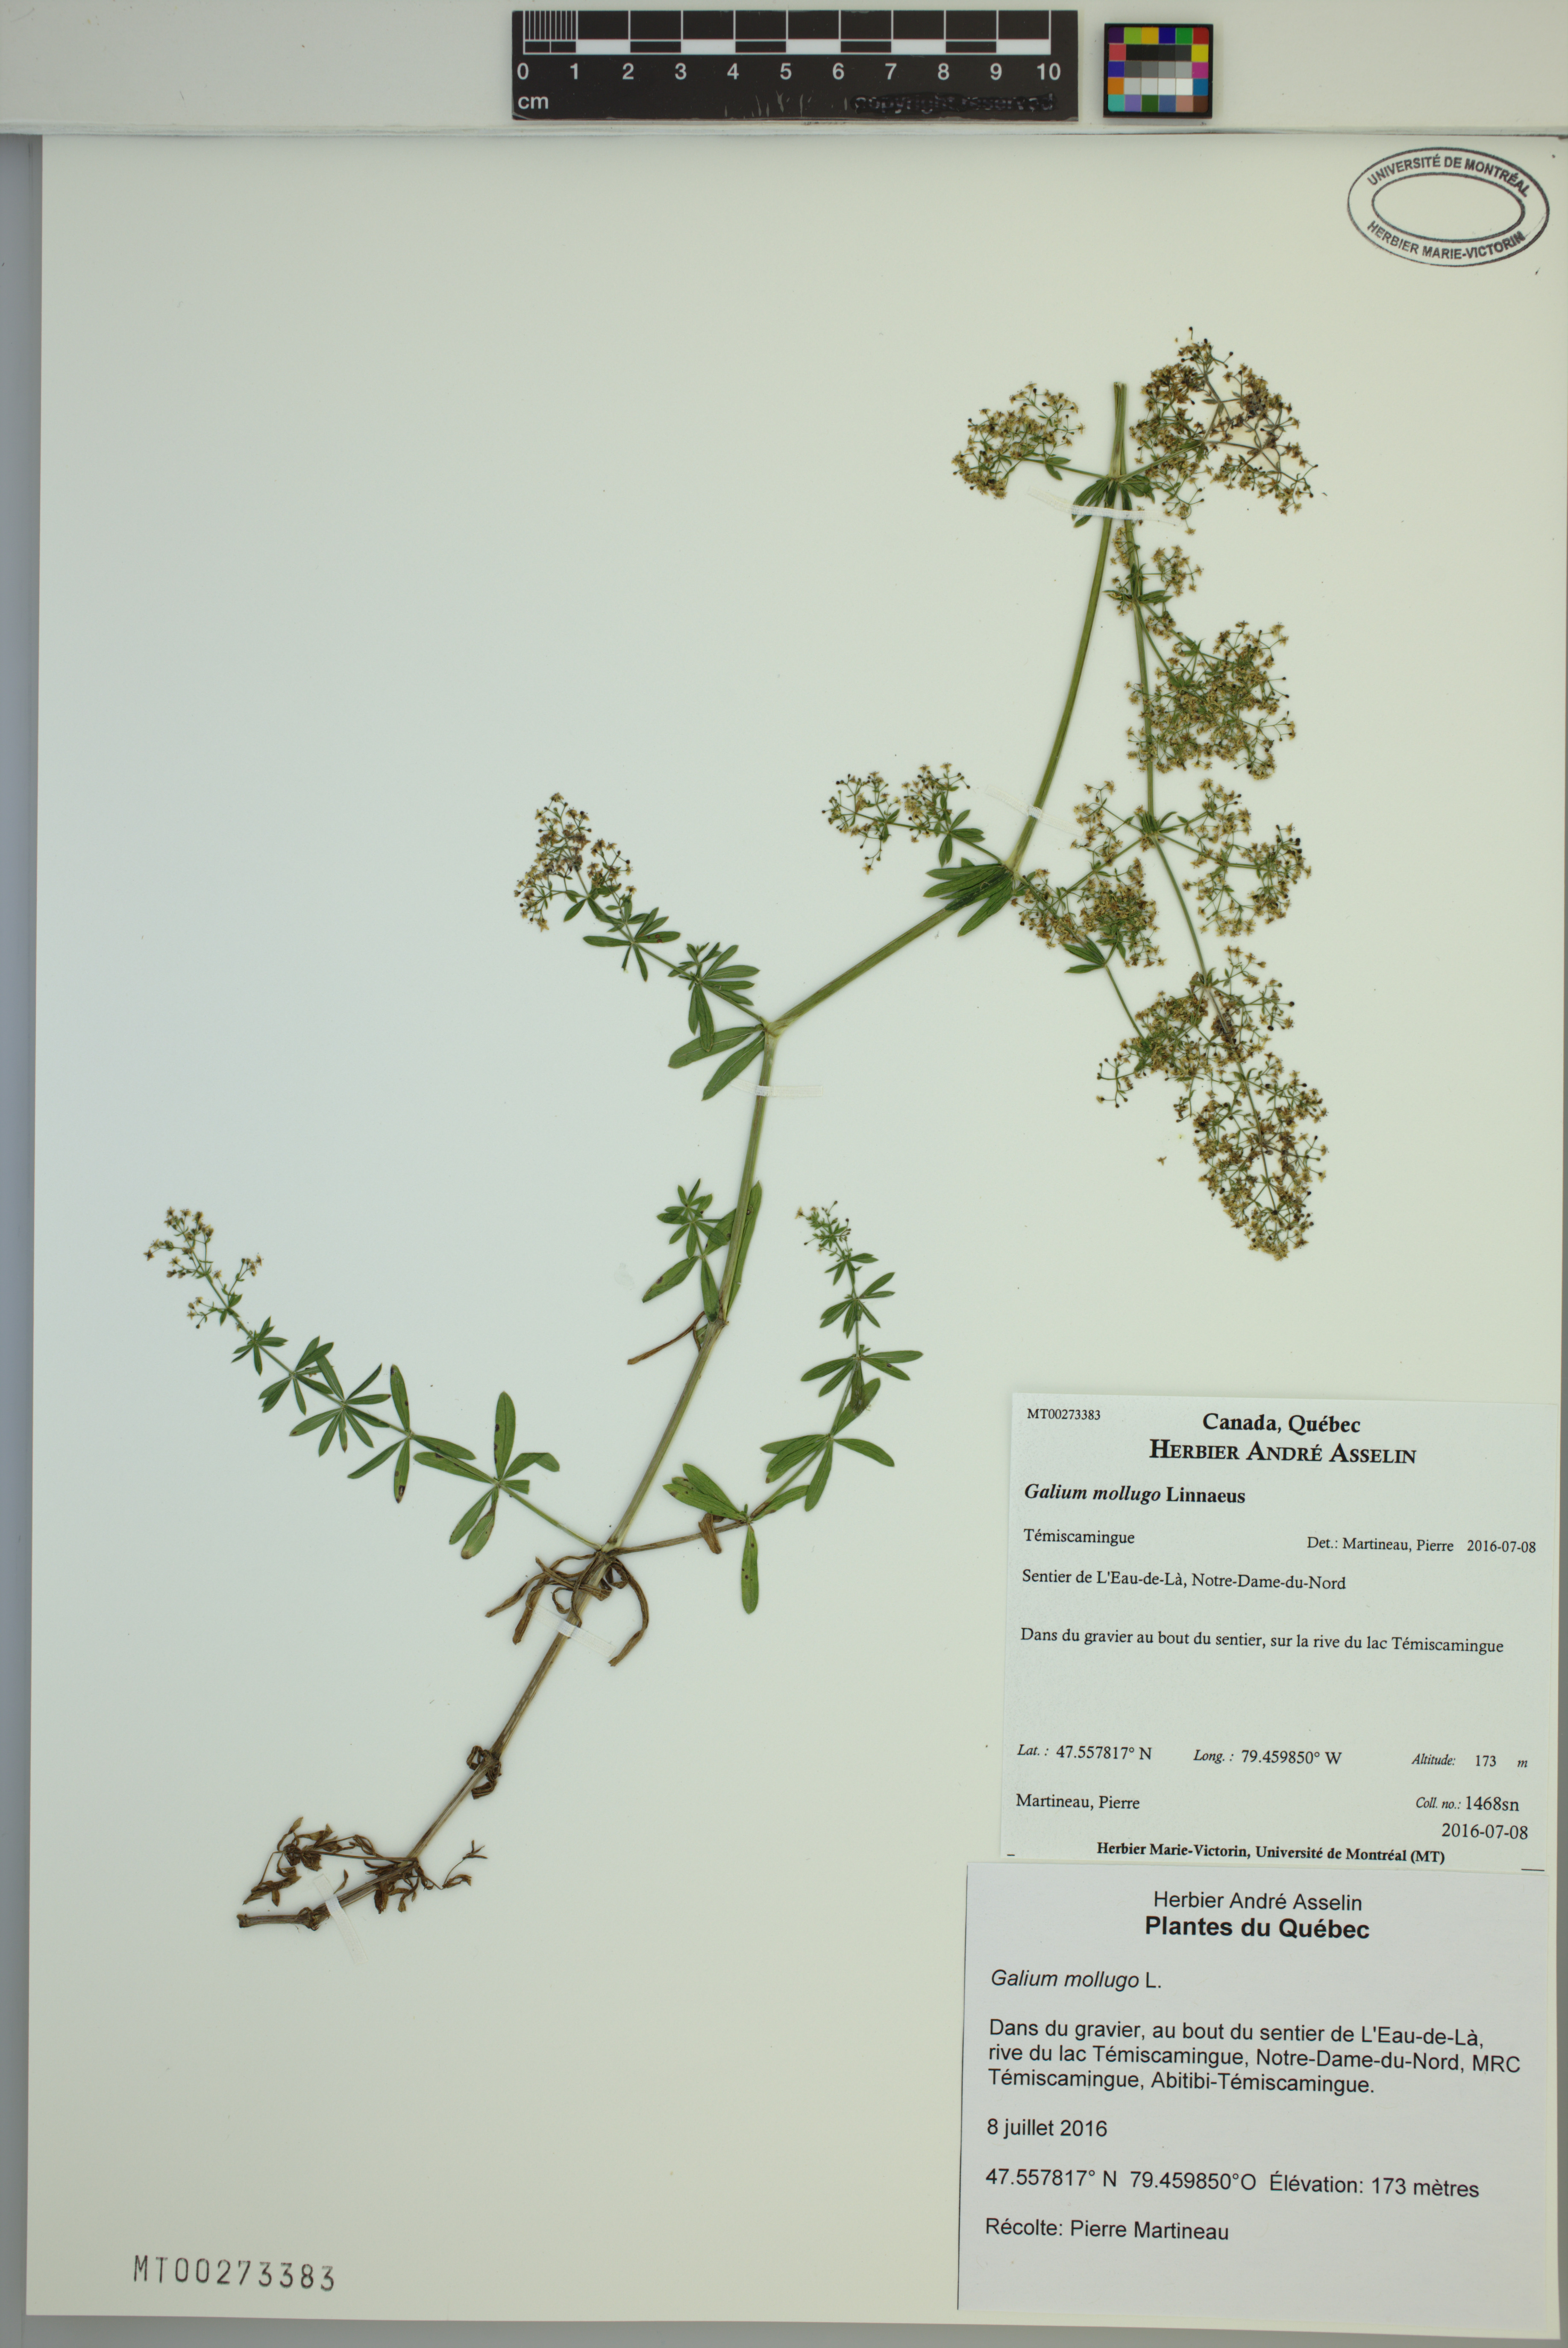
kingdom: Plantae
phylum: Tracheophyta
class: Magnoliopsida
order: Gentianales
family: Rubiaceae
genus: Galium
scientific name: Galium mollugo
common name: Hedge bedstraw
